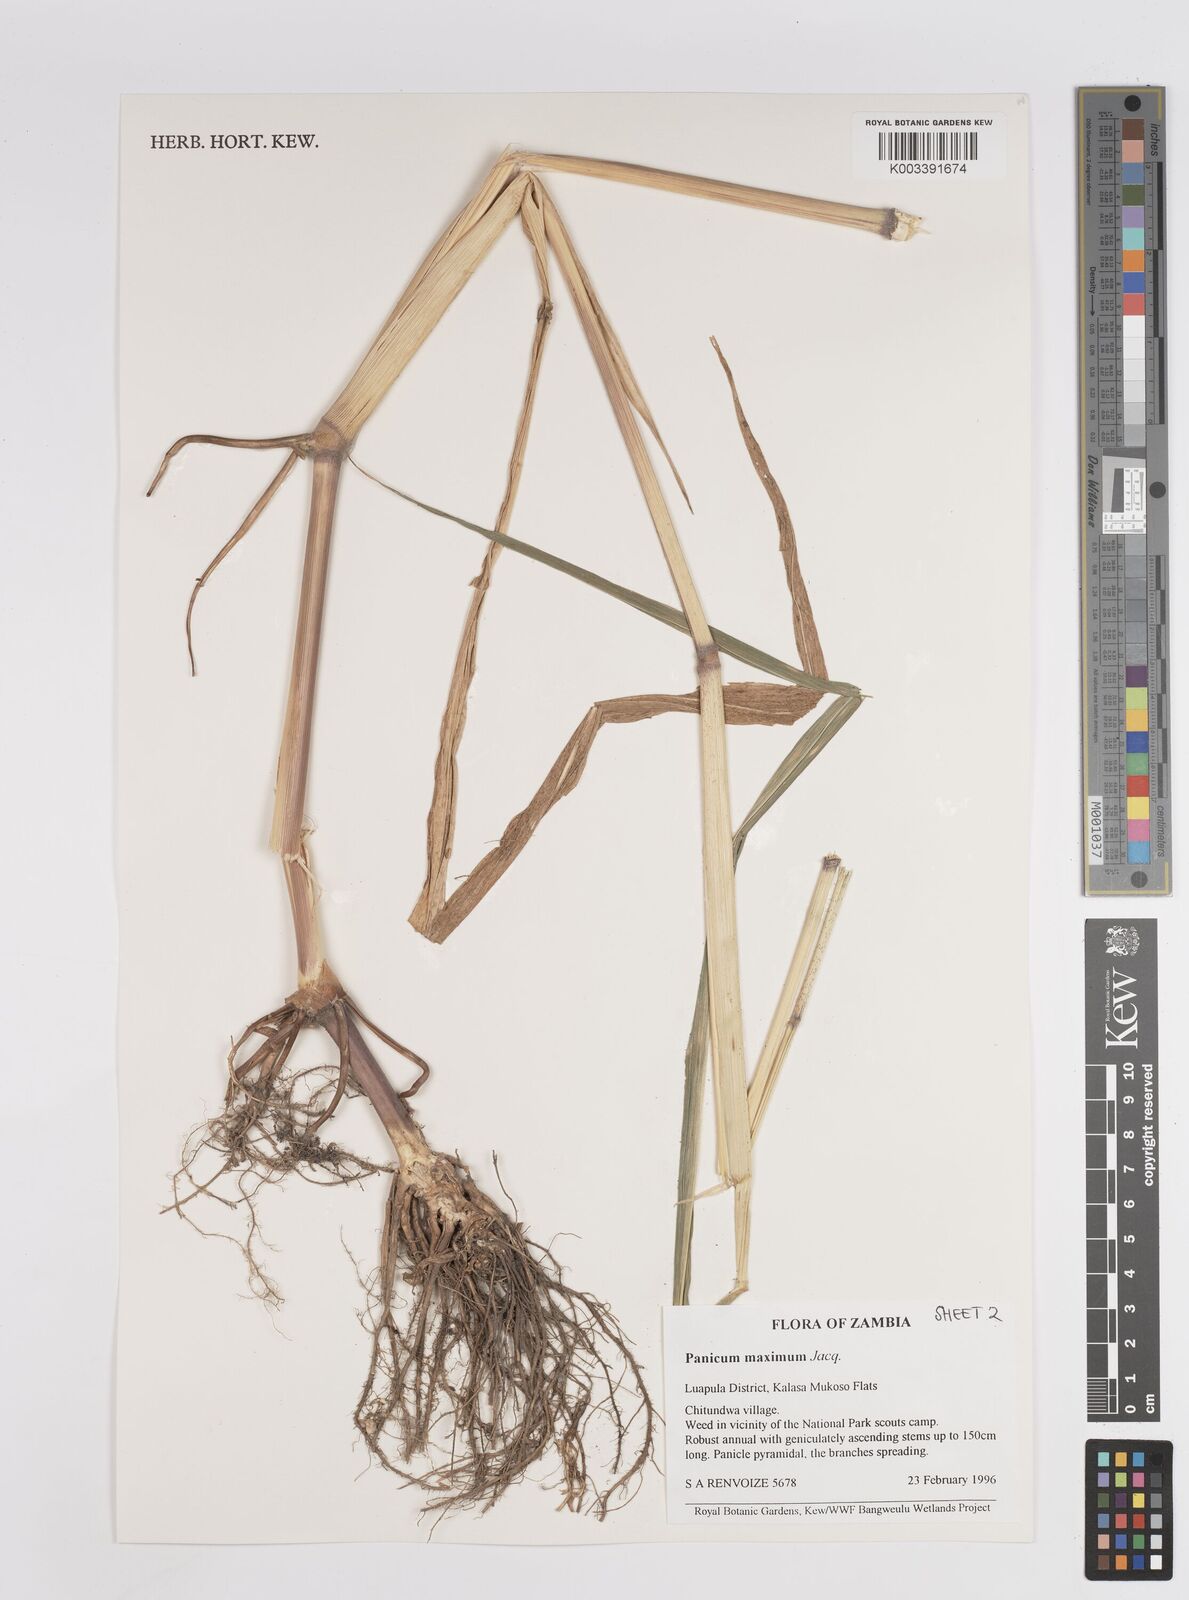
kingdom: Plantae
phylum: Tracheophyta
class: Liliopsida
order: Poales
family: Poaceae
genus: Megathyrsus
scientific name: Megathyrsus maximus
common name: Guineagrass
